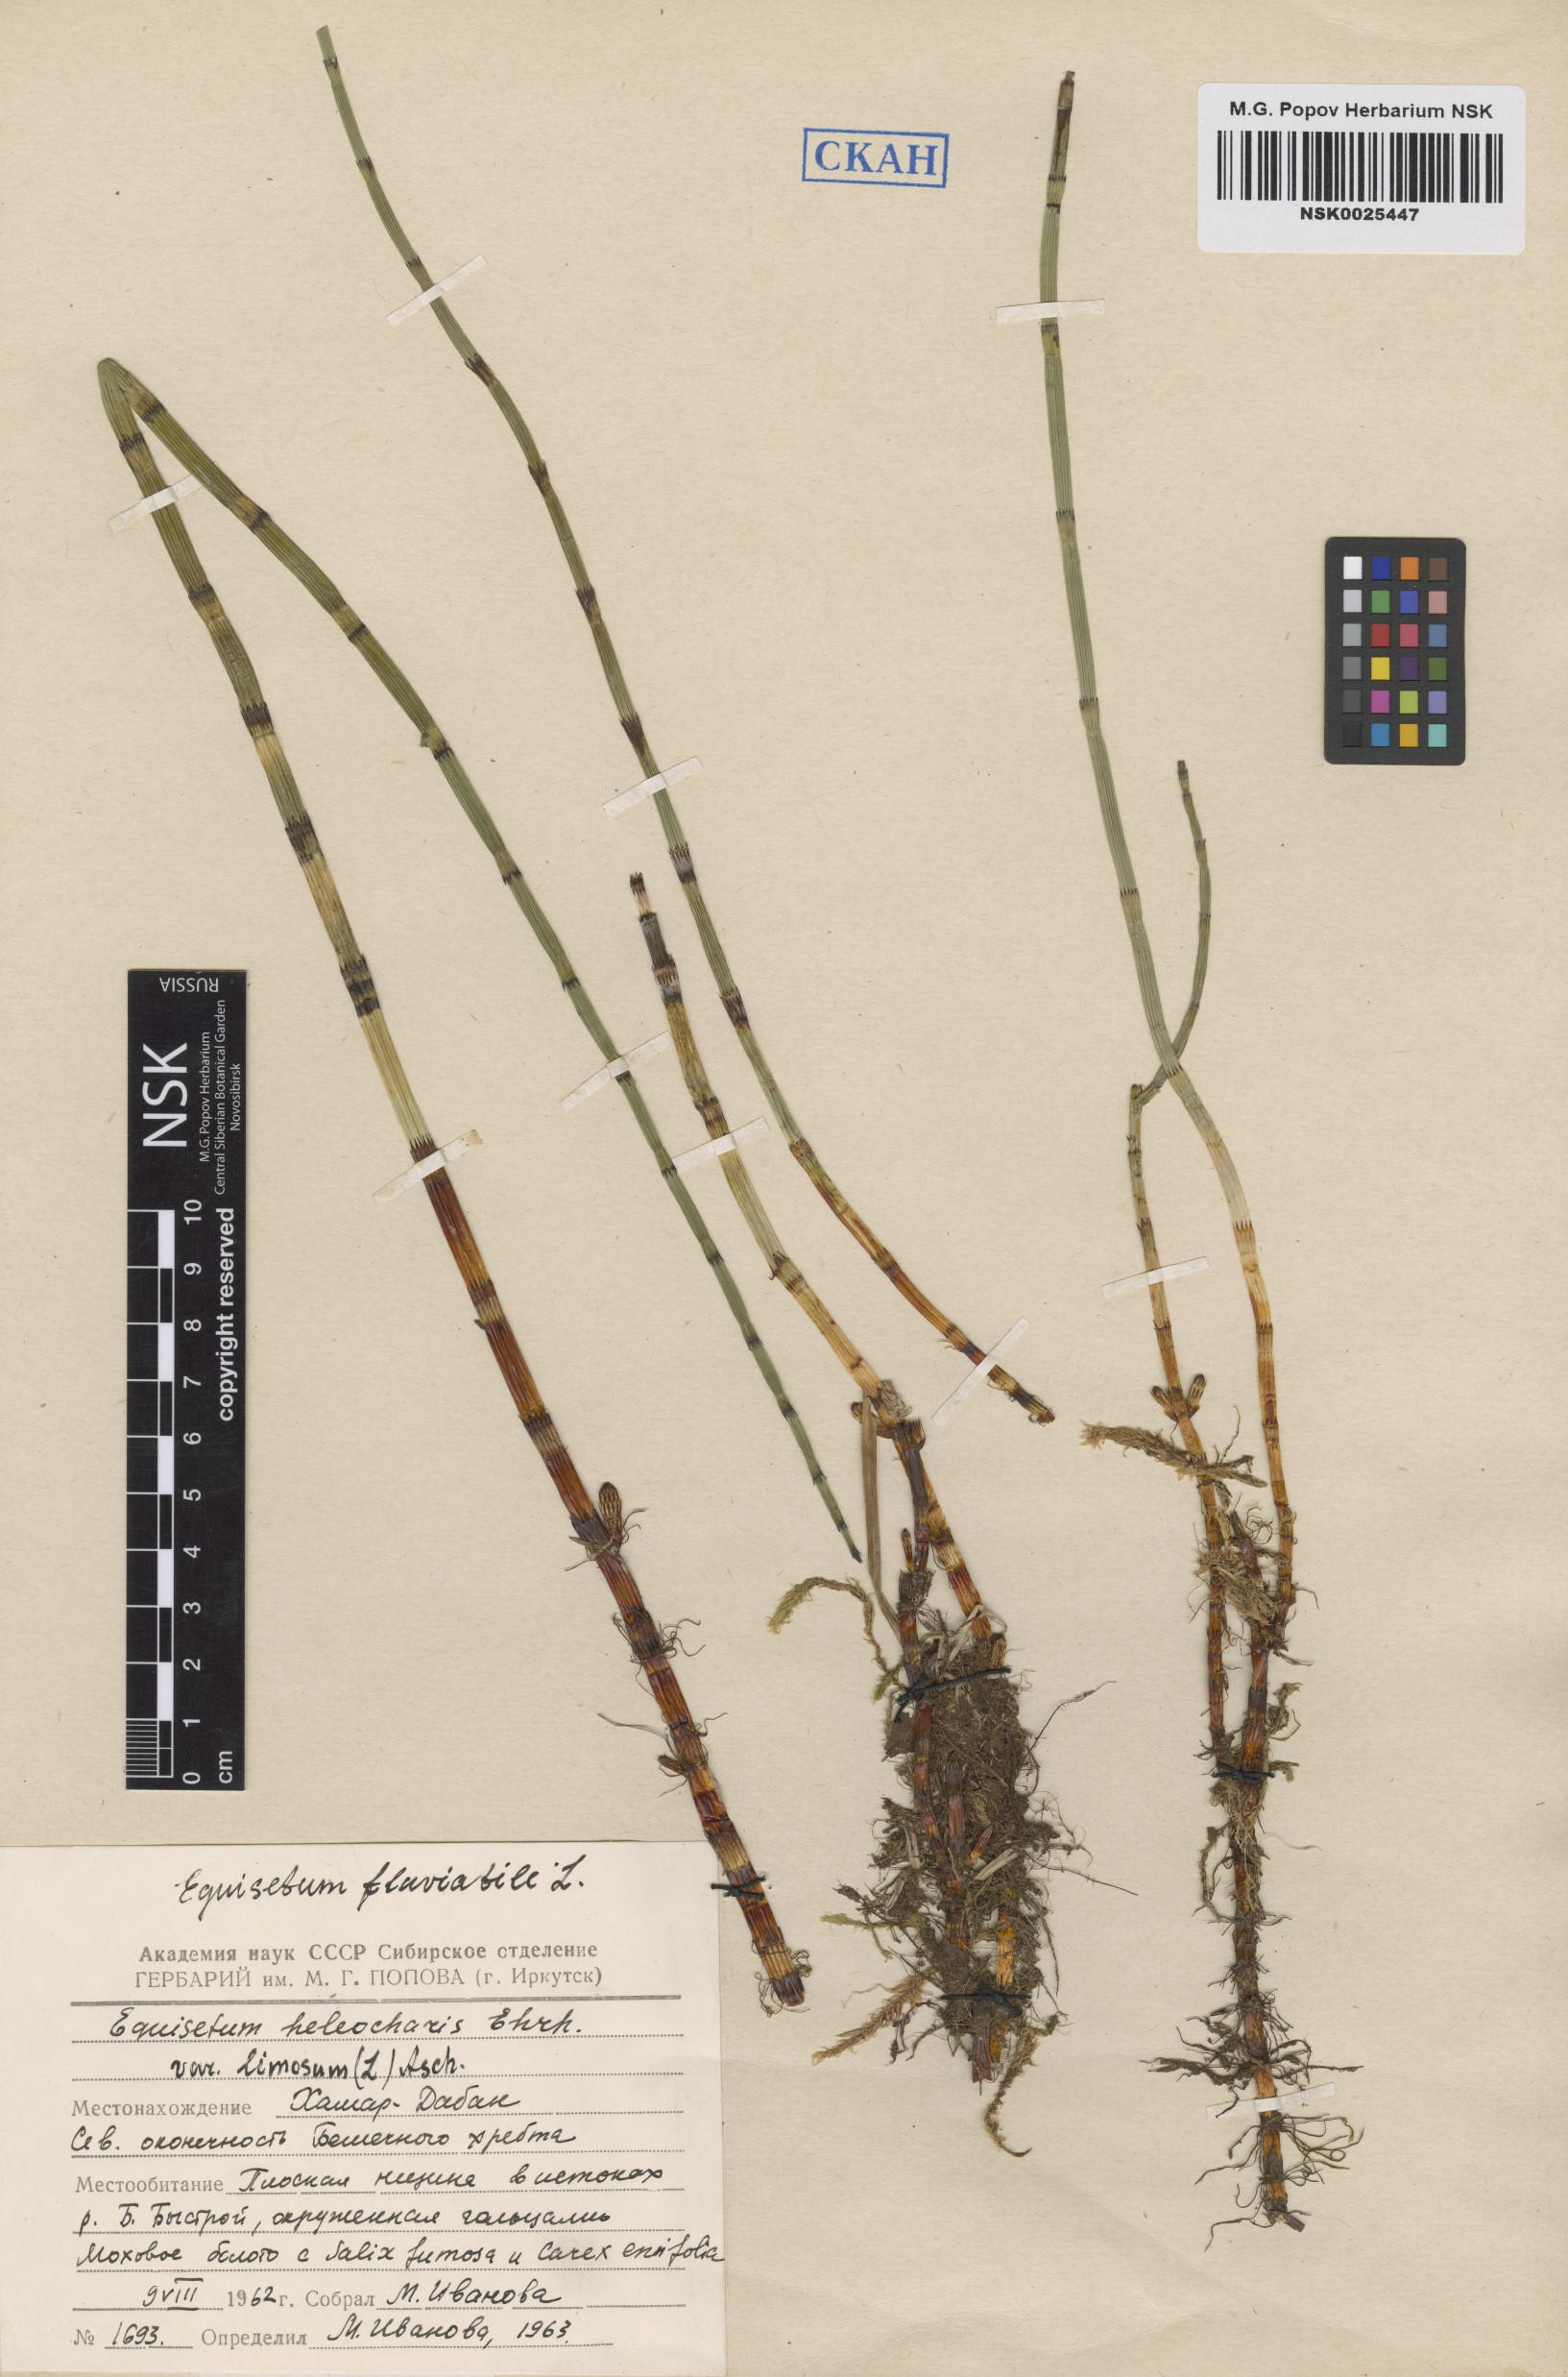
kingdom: Plantae
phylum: Tracheophyta
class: Polypodiopsida
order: Equisetales
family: Equisetaceae
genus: Equisetum
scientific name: Equisetum fluviatile
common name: Water horsetail
